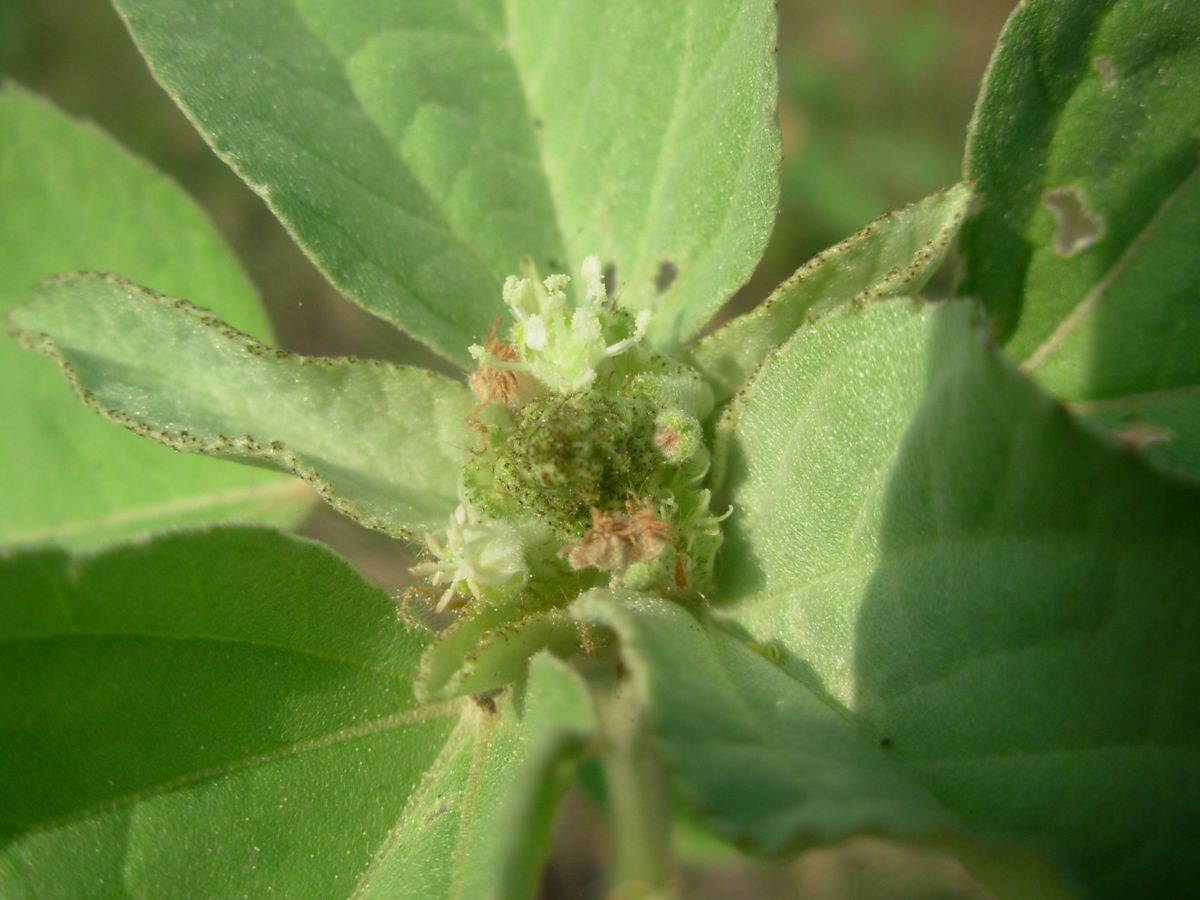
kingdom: Plantae
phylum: Tracheophyta
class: Magnoliopsida
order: Malpighiales
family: Euphorbiaceae
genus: Croton
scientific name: Croton argenteus
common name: Silver july croton
